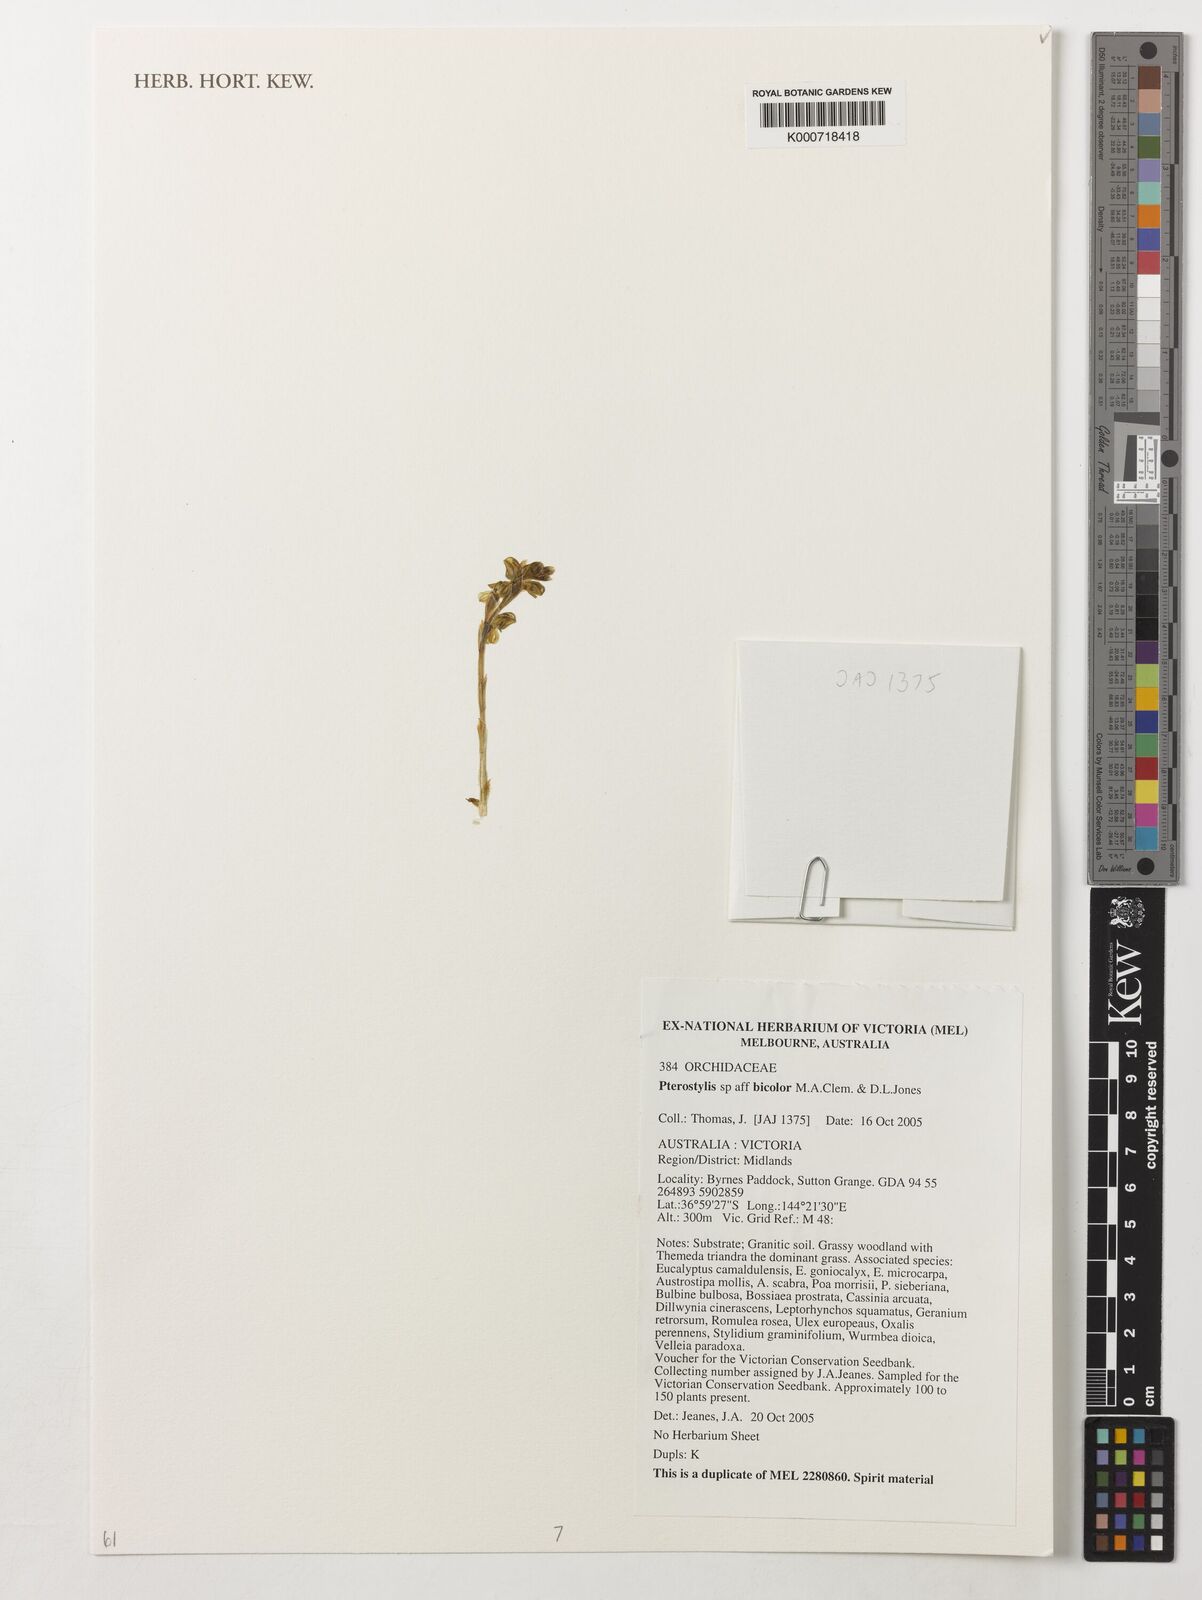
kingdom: Plantae
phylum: Tracheophyta
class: Liliopsida
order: Asparagales
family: Orchidaceae
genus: Pterostylis
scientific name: Pterostylis bicolor
